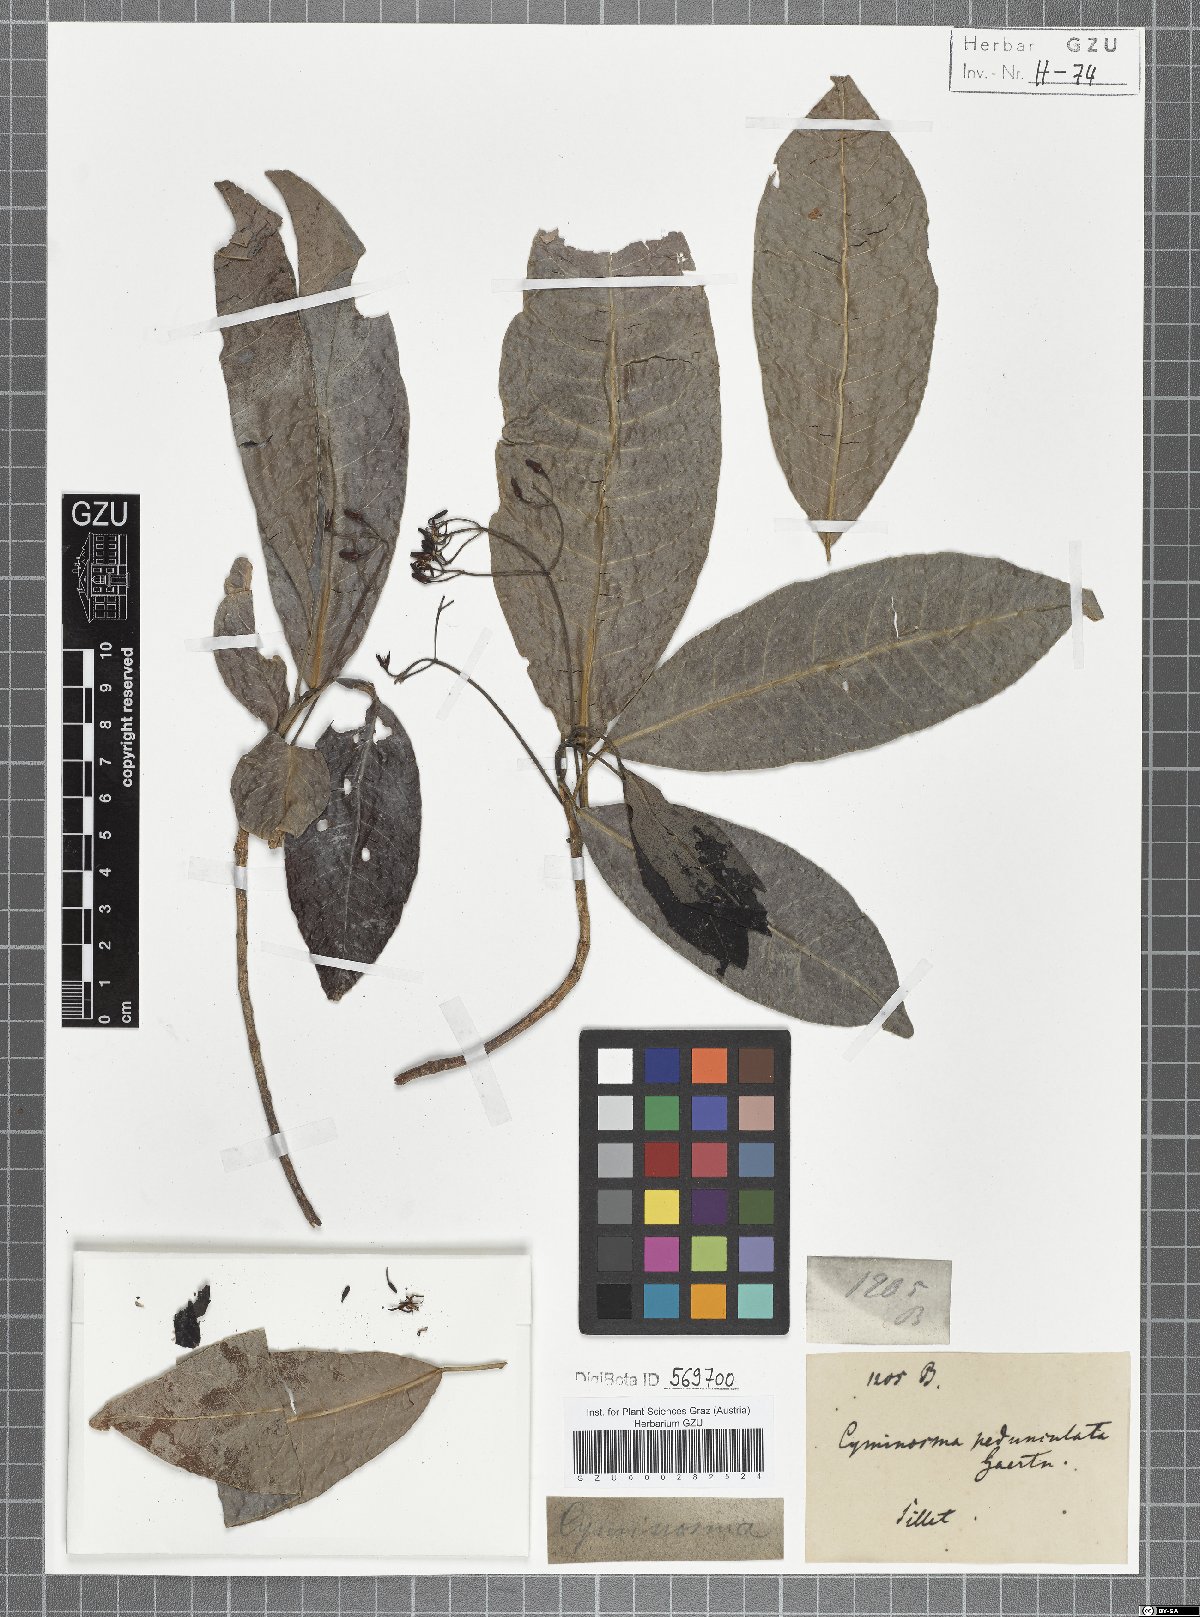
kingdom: Plantae
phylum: Tracheophyta
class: Magnoliopsida
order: Sapindales
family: Rutaceae
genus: Acronychia
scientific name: Acronychia pedunculata
